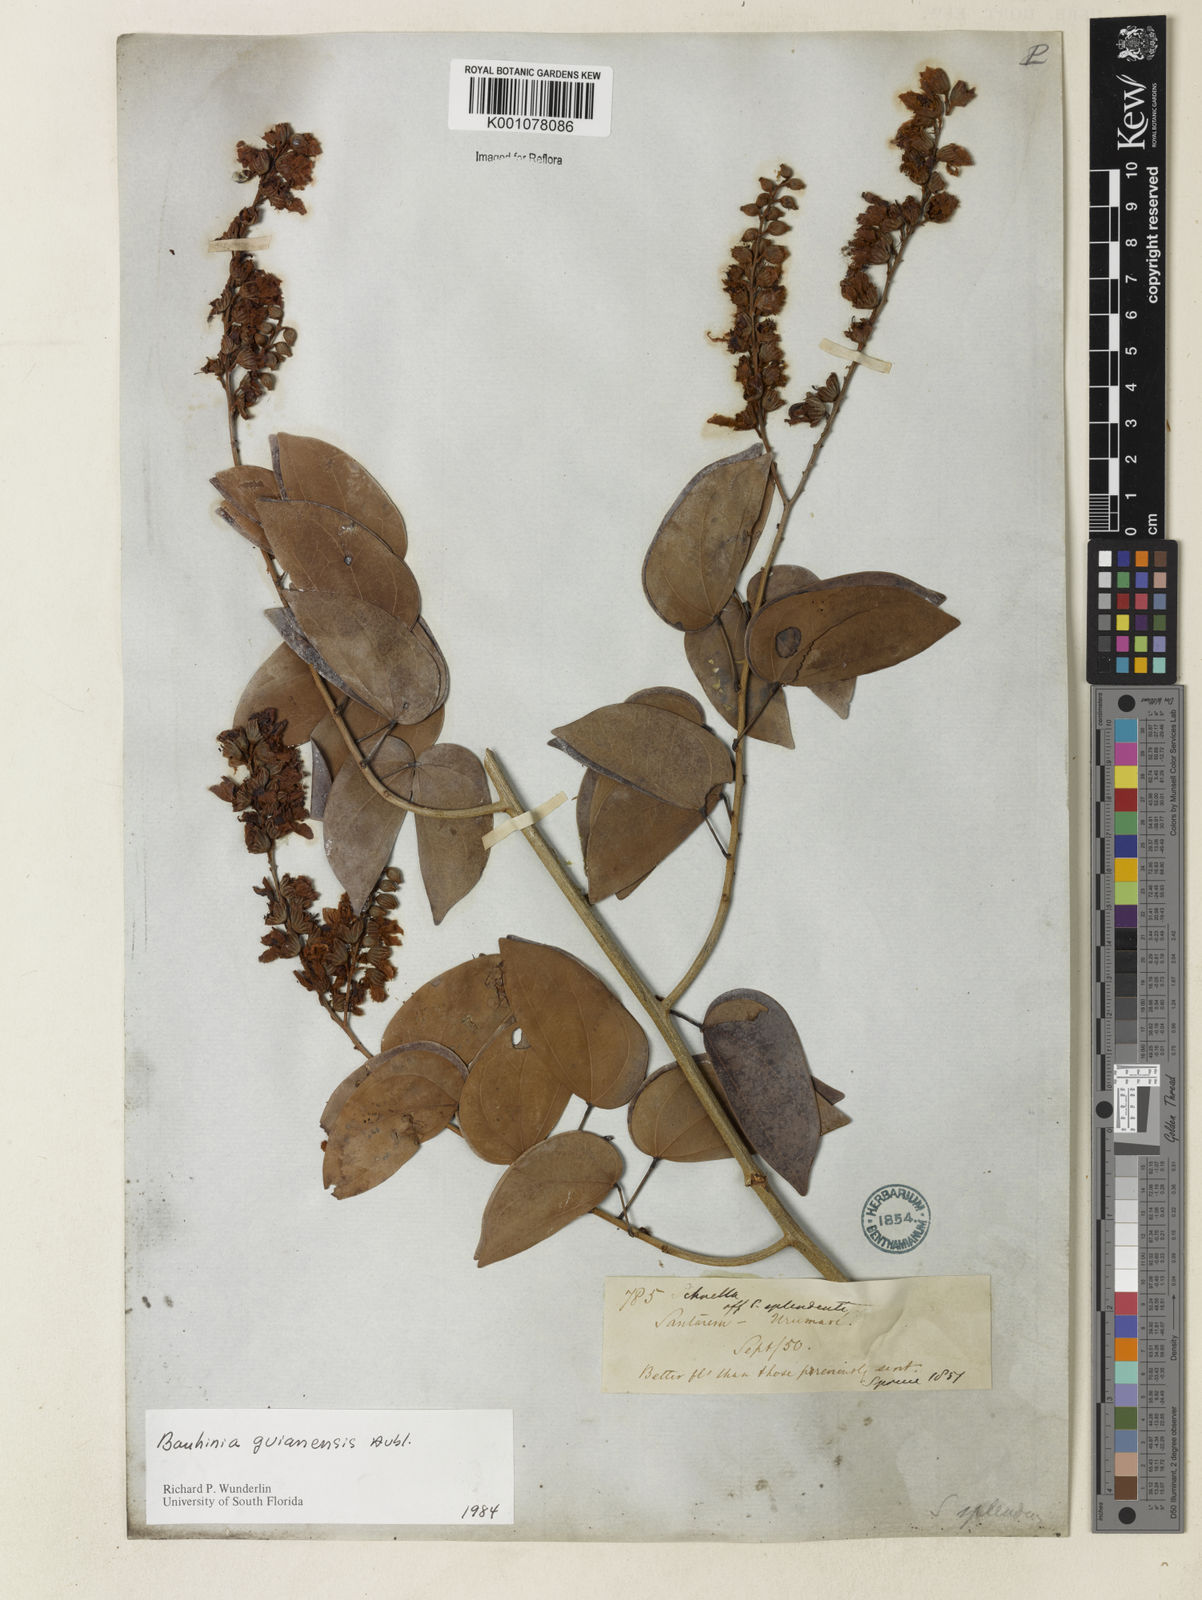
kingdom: Plantae
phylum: Tracheophyta
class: Magnoliopsida
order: Fabales
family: Fabaceae
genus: Schnella
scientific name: Schnella guianensis
